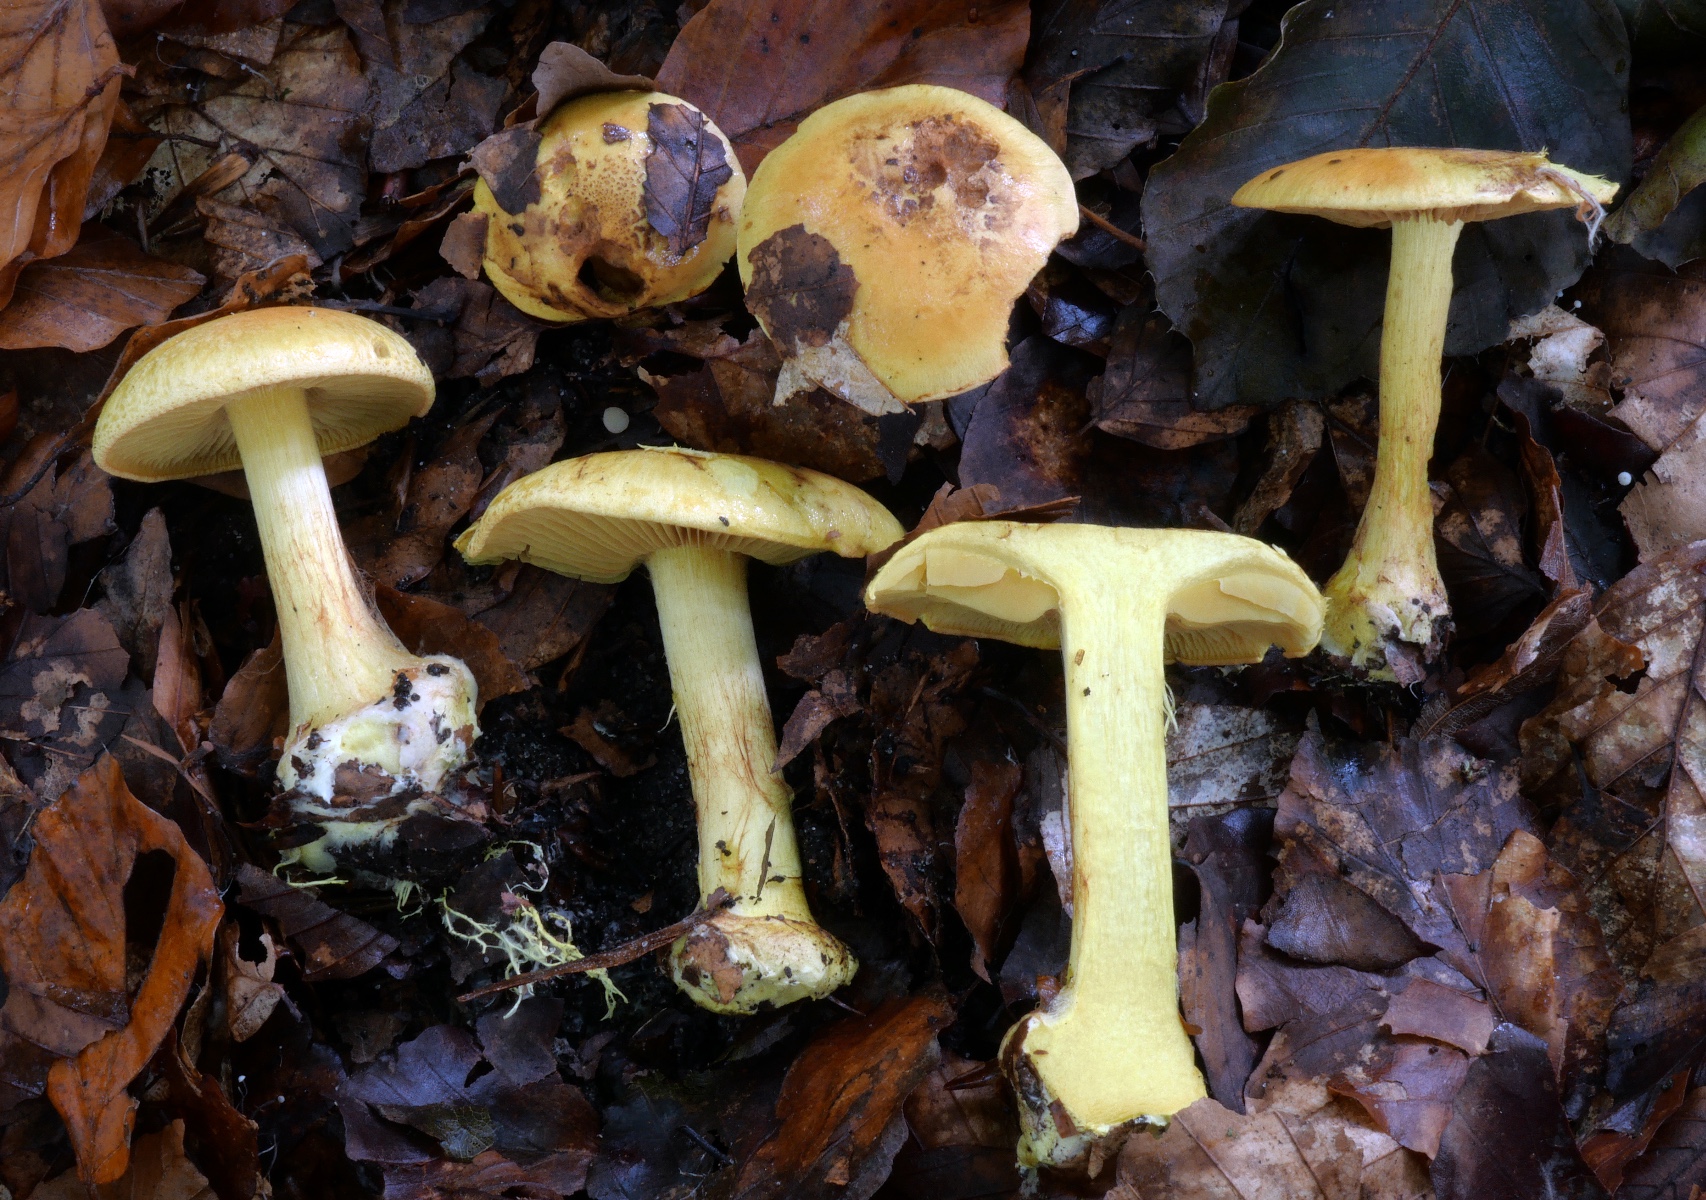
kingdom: Fungi
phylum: Basidiomycota
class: Agaricomycetes
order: Agaricales
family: Cortinariaceae
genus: Calonarius
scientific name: Calonarius splendens
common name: sirene-slørhat
